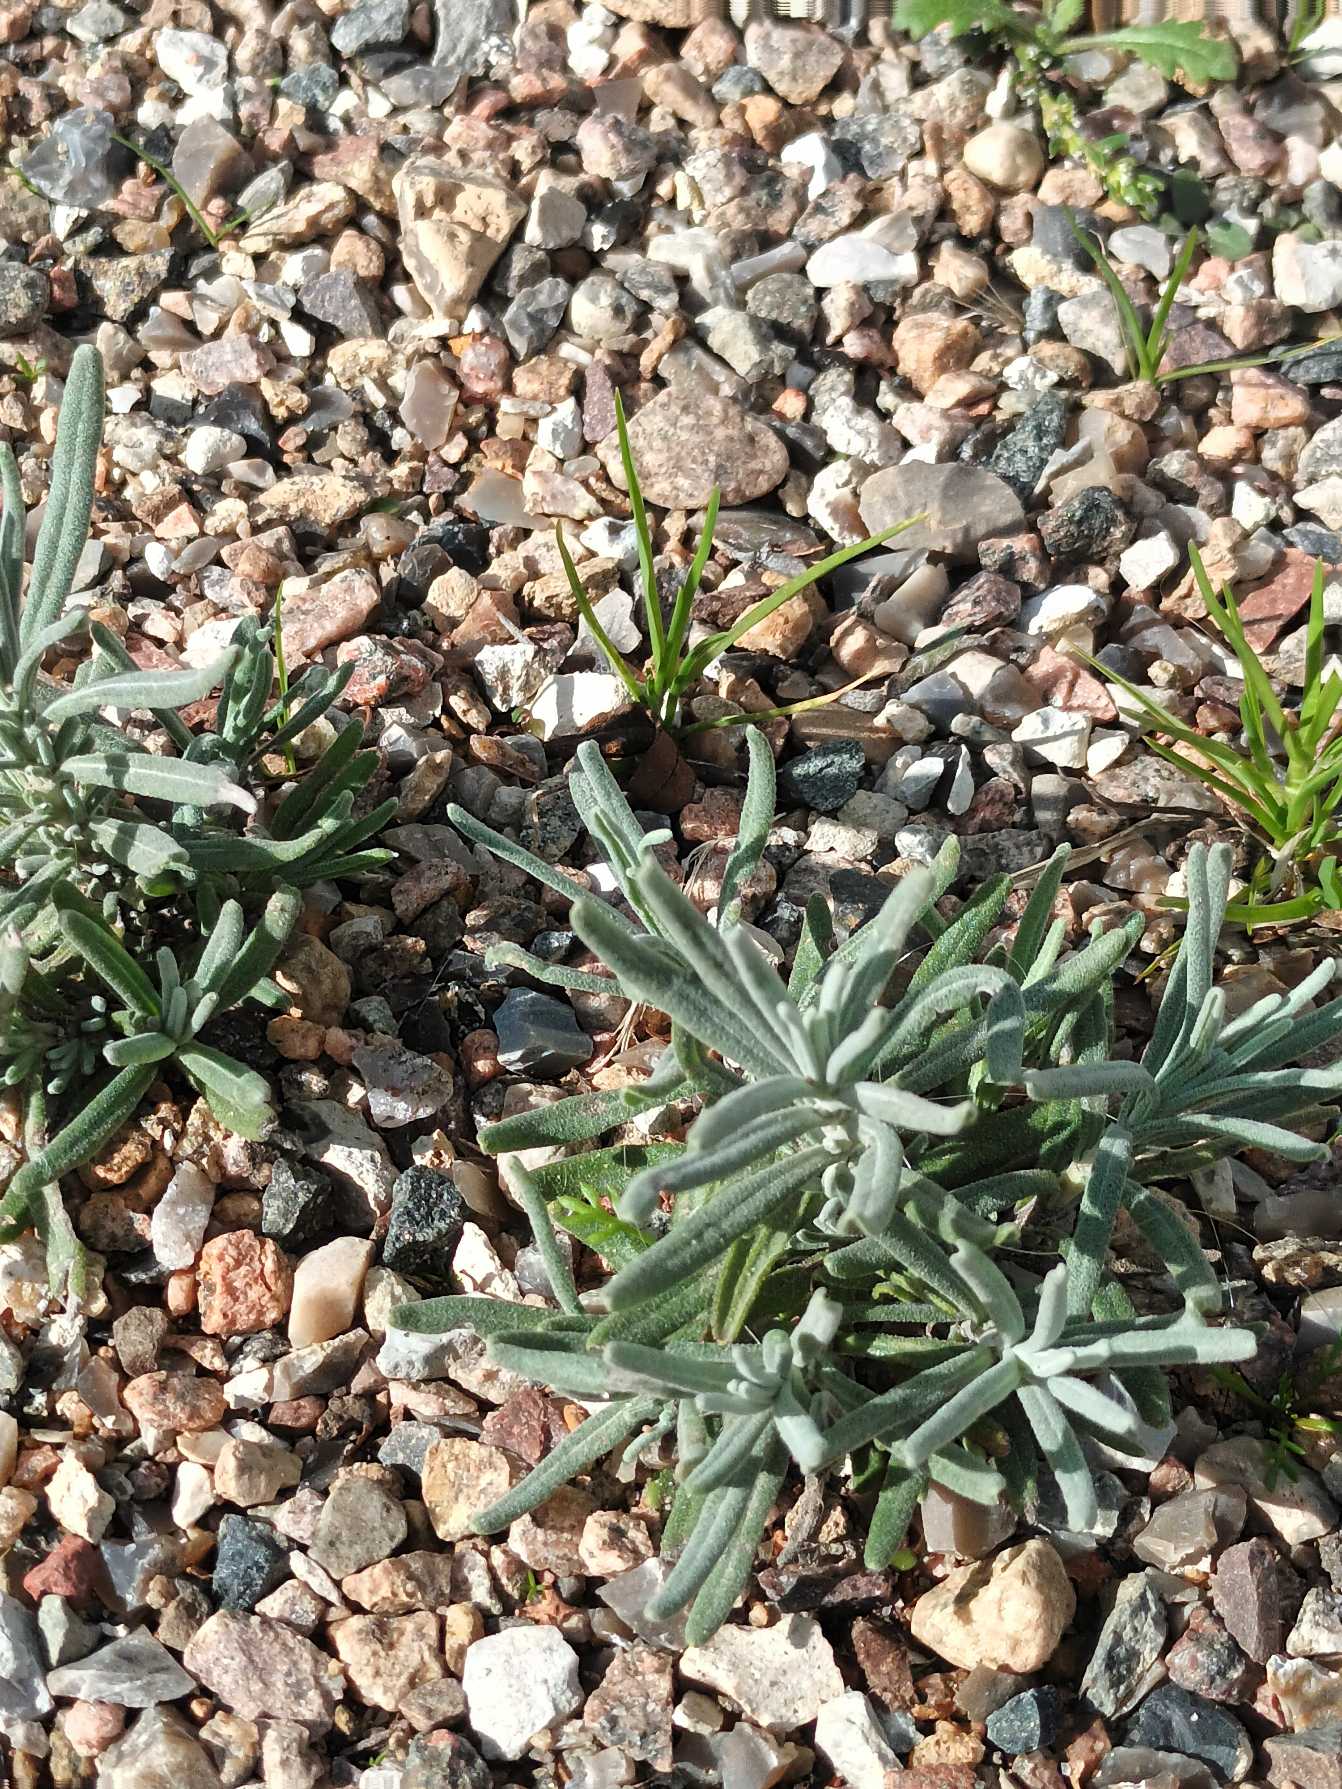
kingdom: Plantae
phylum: Tracheophyta
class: Magnoliopsida
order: Lamiales
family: Lamiaceae
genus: Lavandula
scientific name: Lavandula angustifolia
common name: Ægte lavendel
